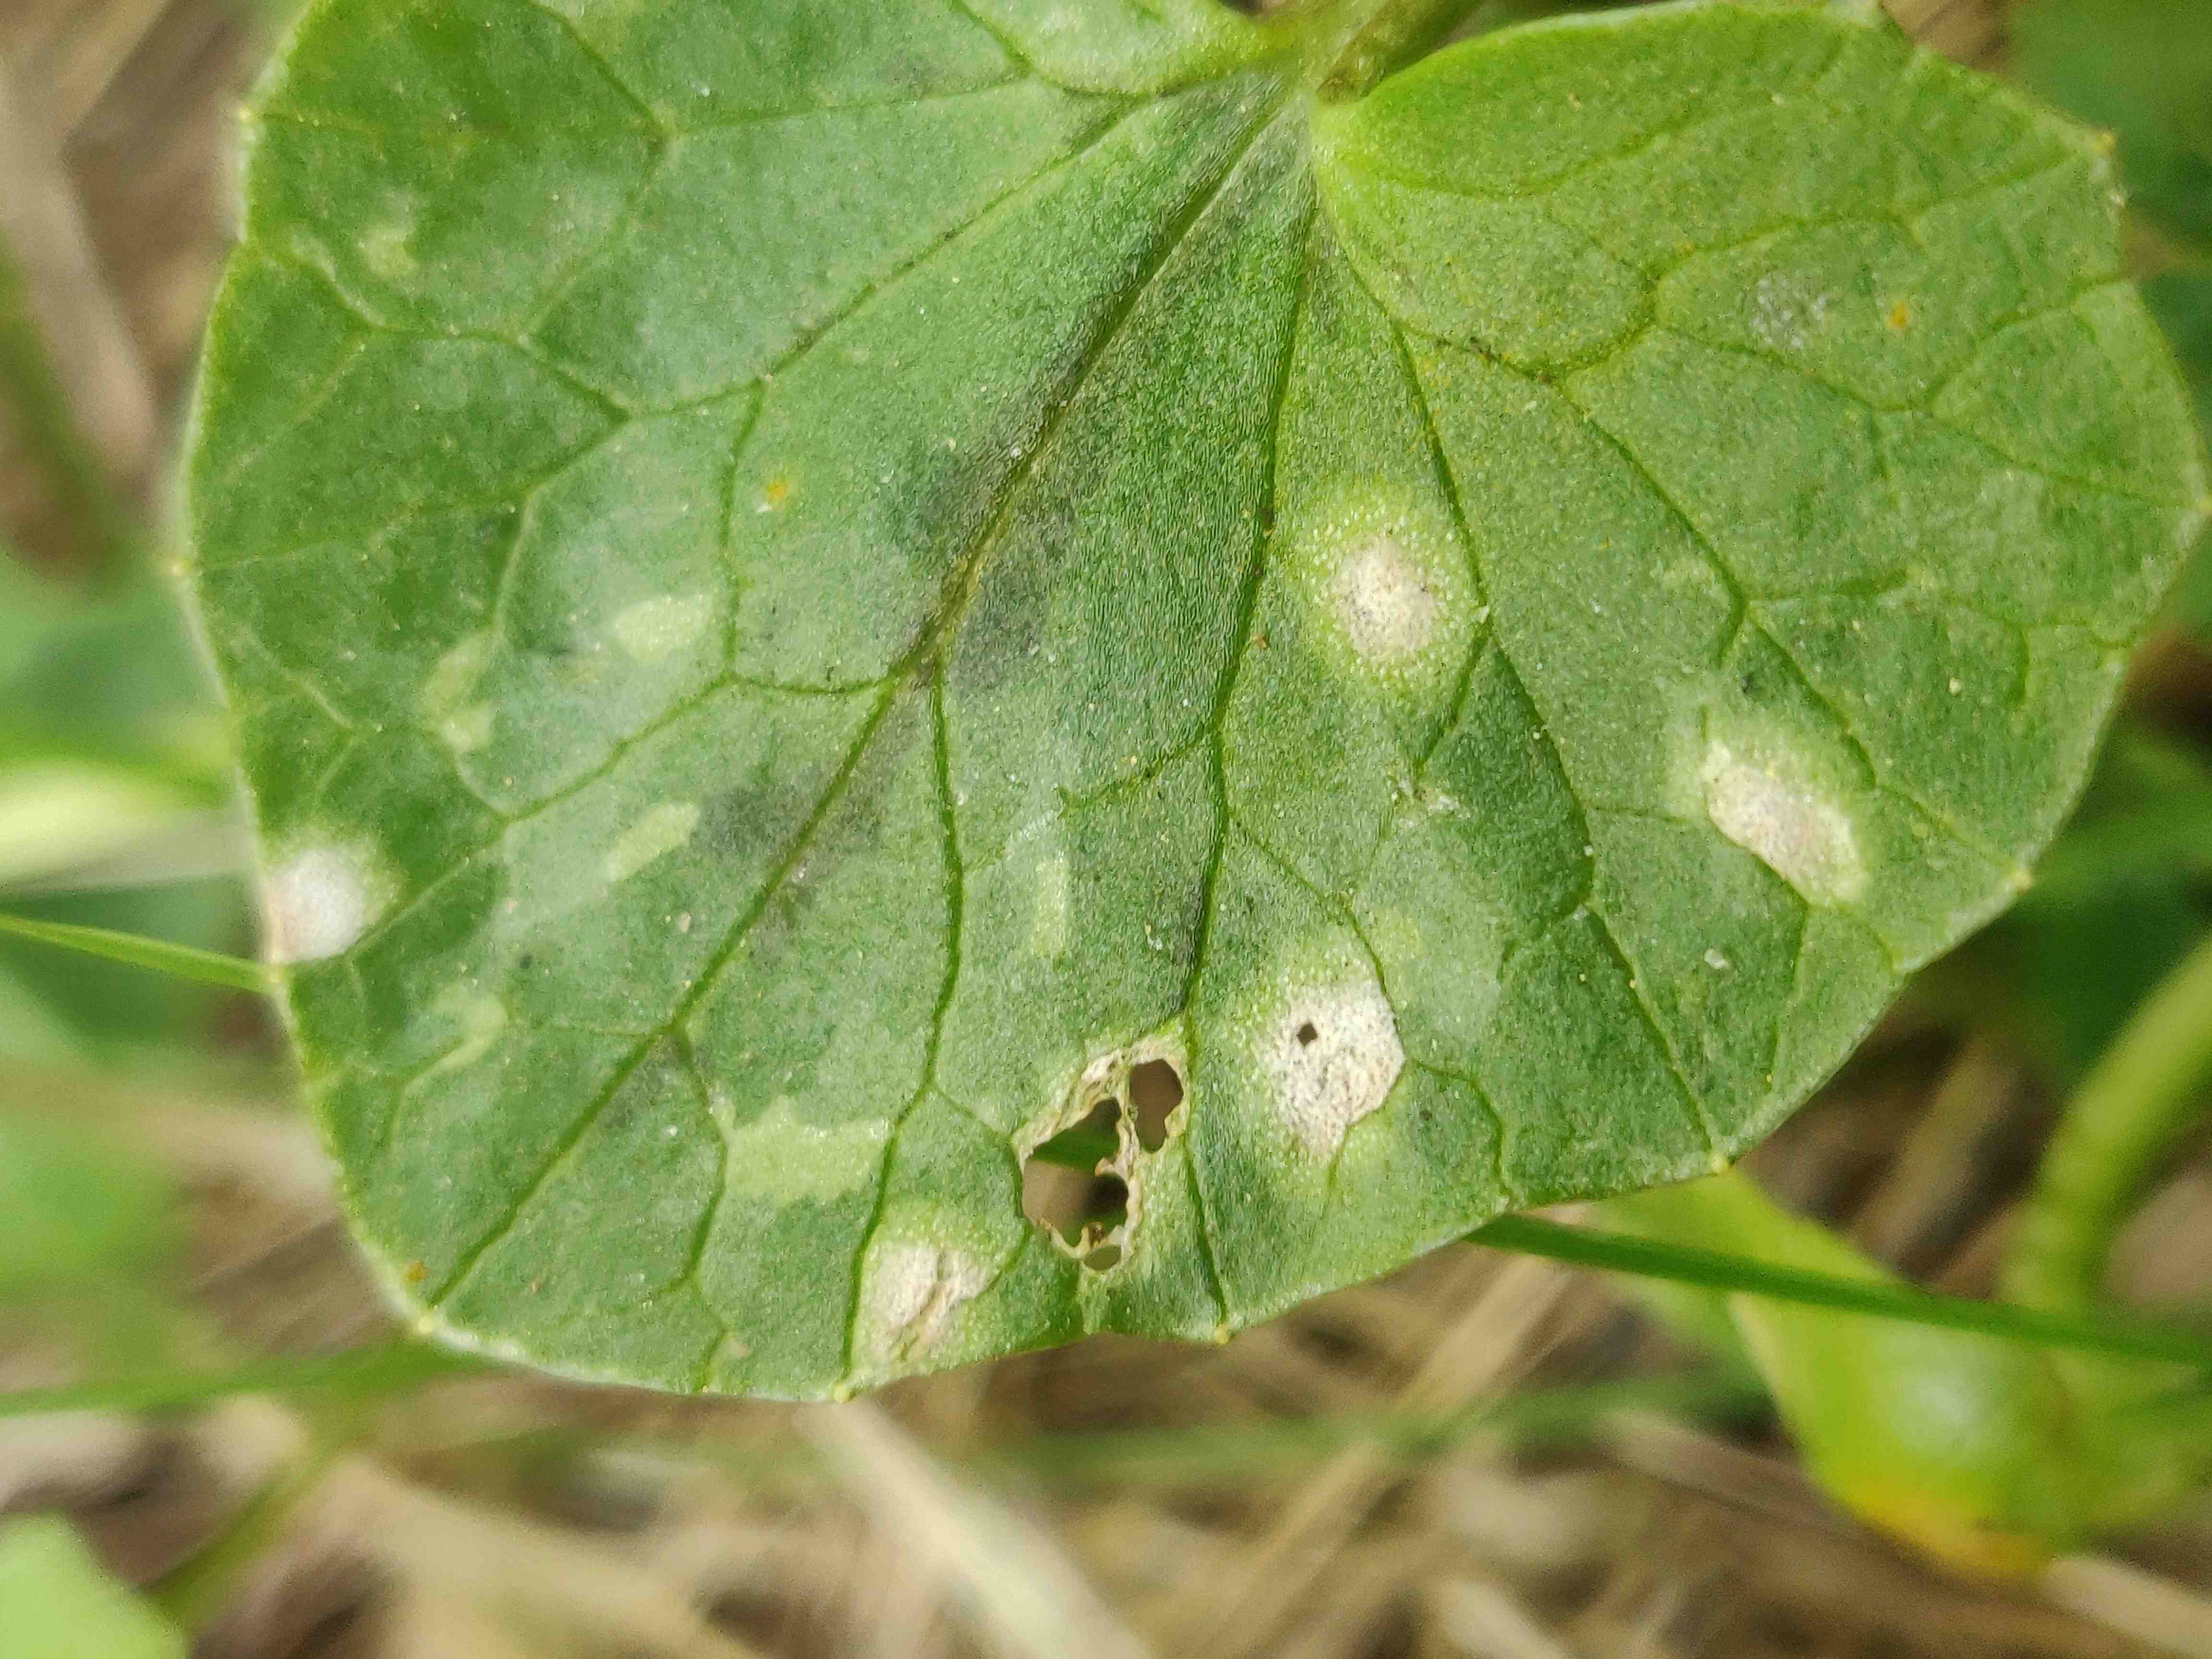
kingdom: Fungi
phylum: Basidiomycota
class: Exobasidiomycetes
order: Entylomatales
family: Entylomataceae
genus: Entyloma
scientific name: Entyloma ficariae
